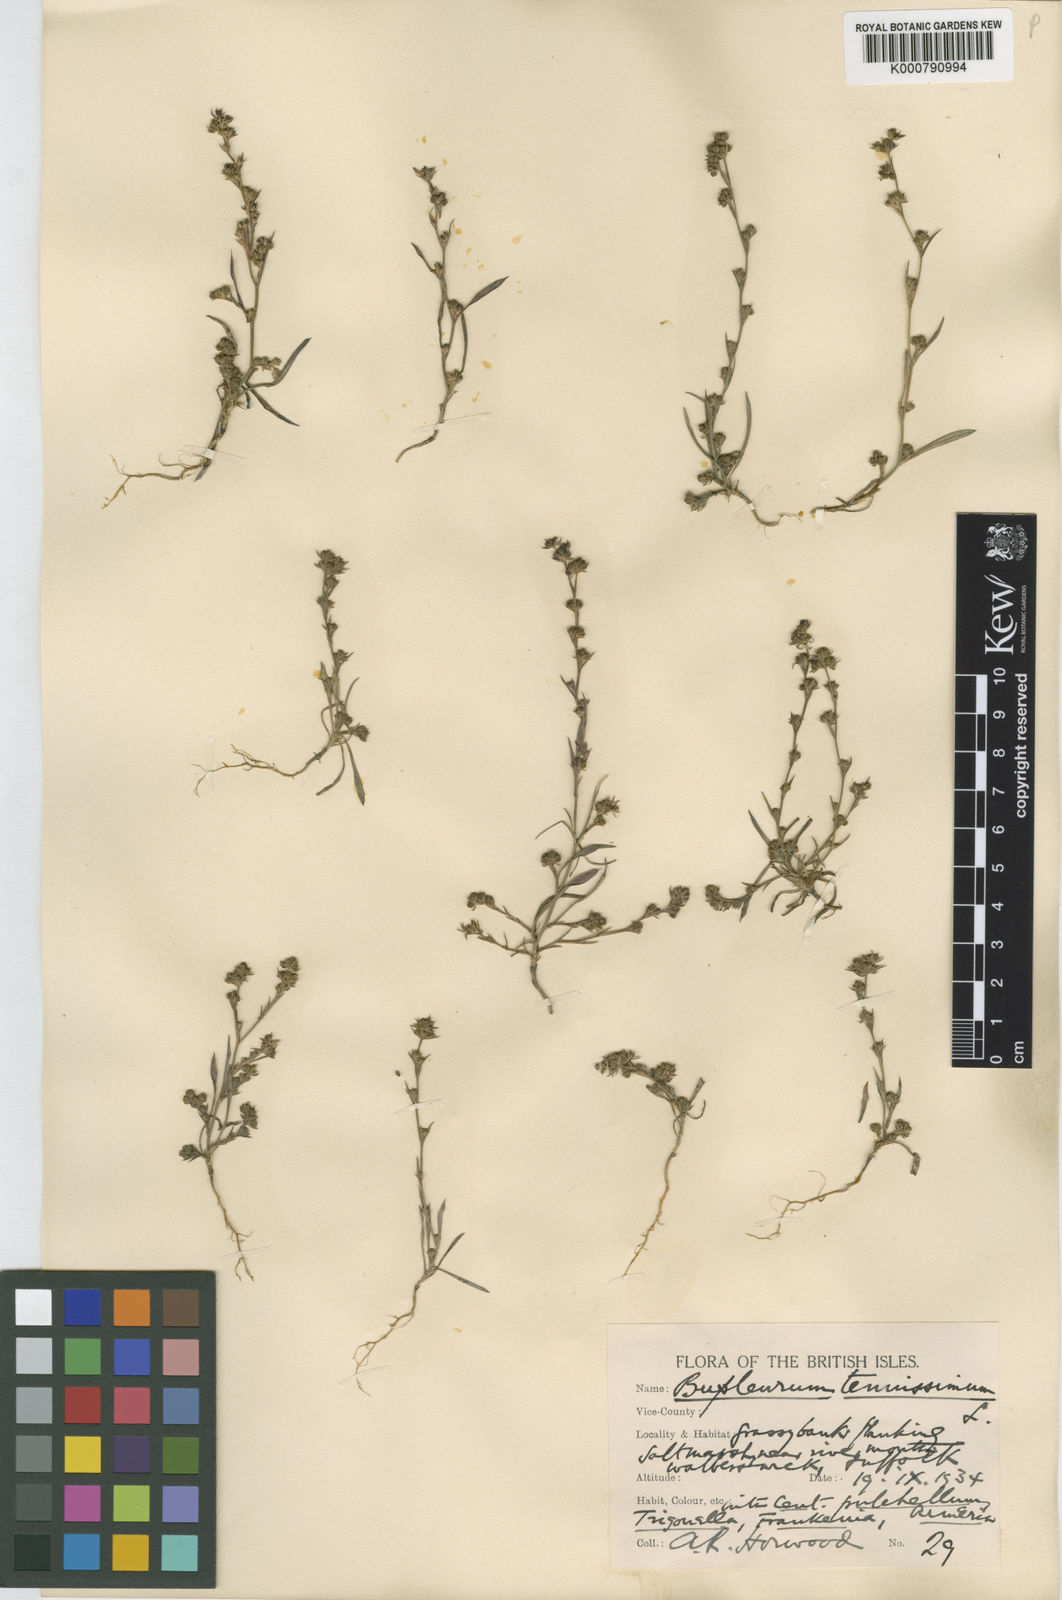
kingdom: Plantae
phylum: Tracheophyta
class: Magnoliopsida
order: Apiales
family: Apiaceae
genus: Bupleurum
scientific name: Bupleurum tenuissimum
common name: Slender hare's-ear
